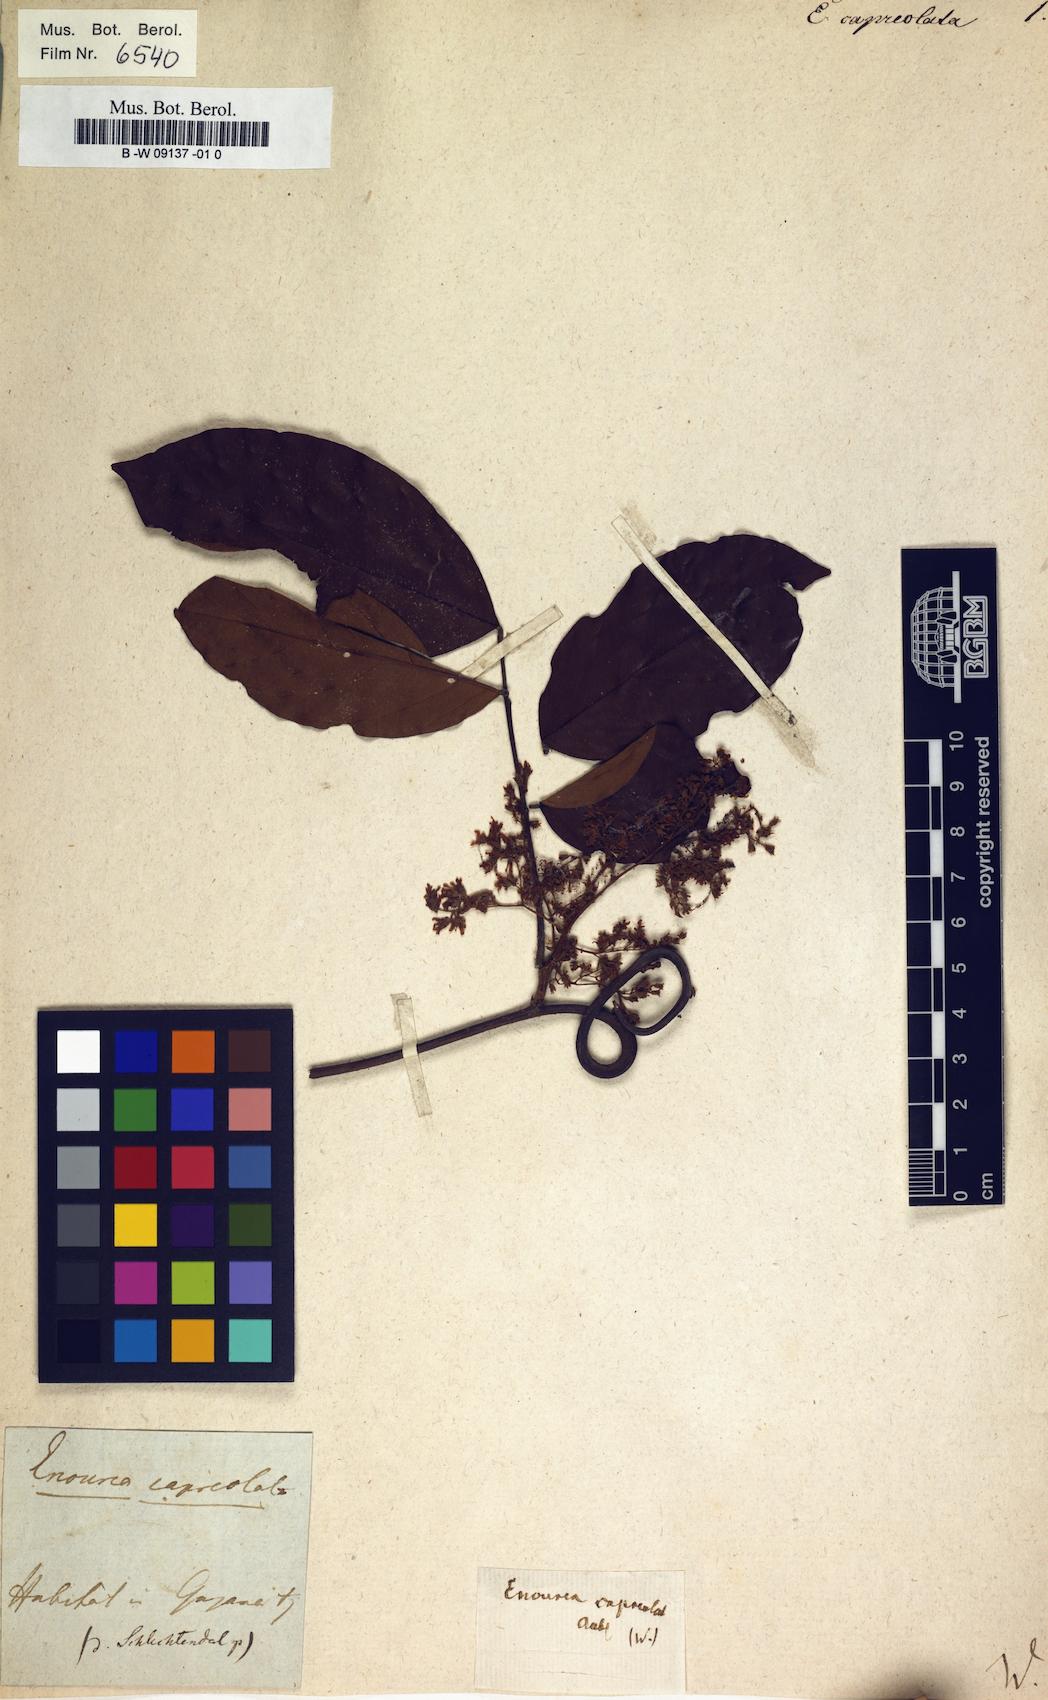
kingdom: Plantae
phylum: Tracheophyta
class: Magnoliopsida
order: Sapindales
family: Sapindaceae
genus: Paullinia
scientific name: Paullinia faginea
